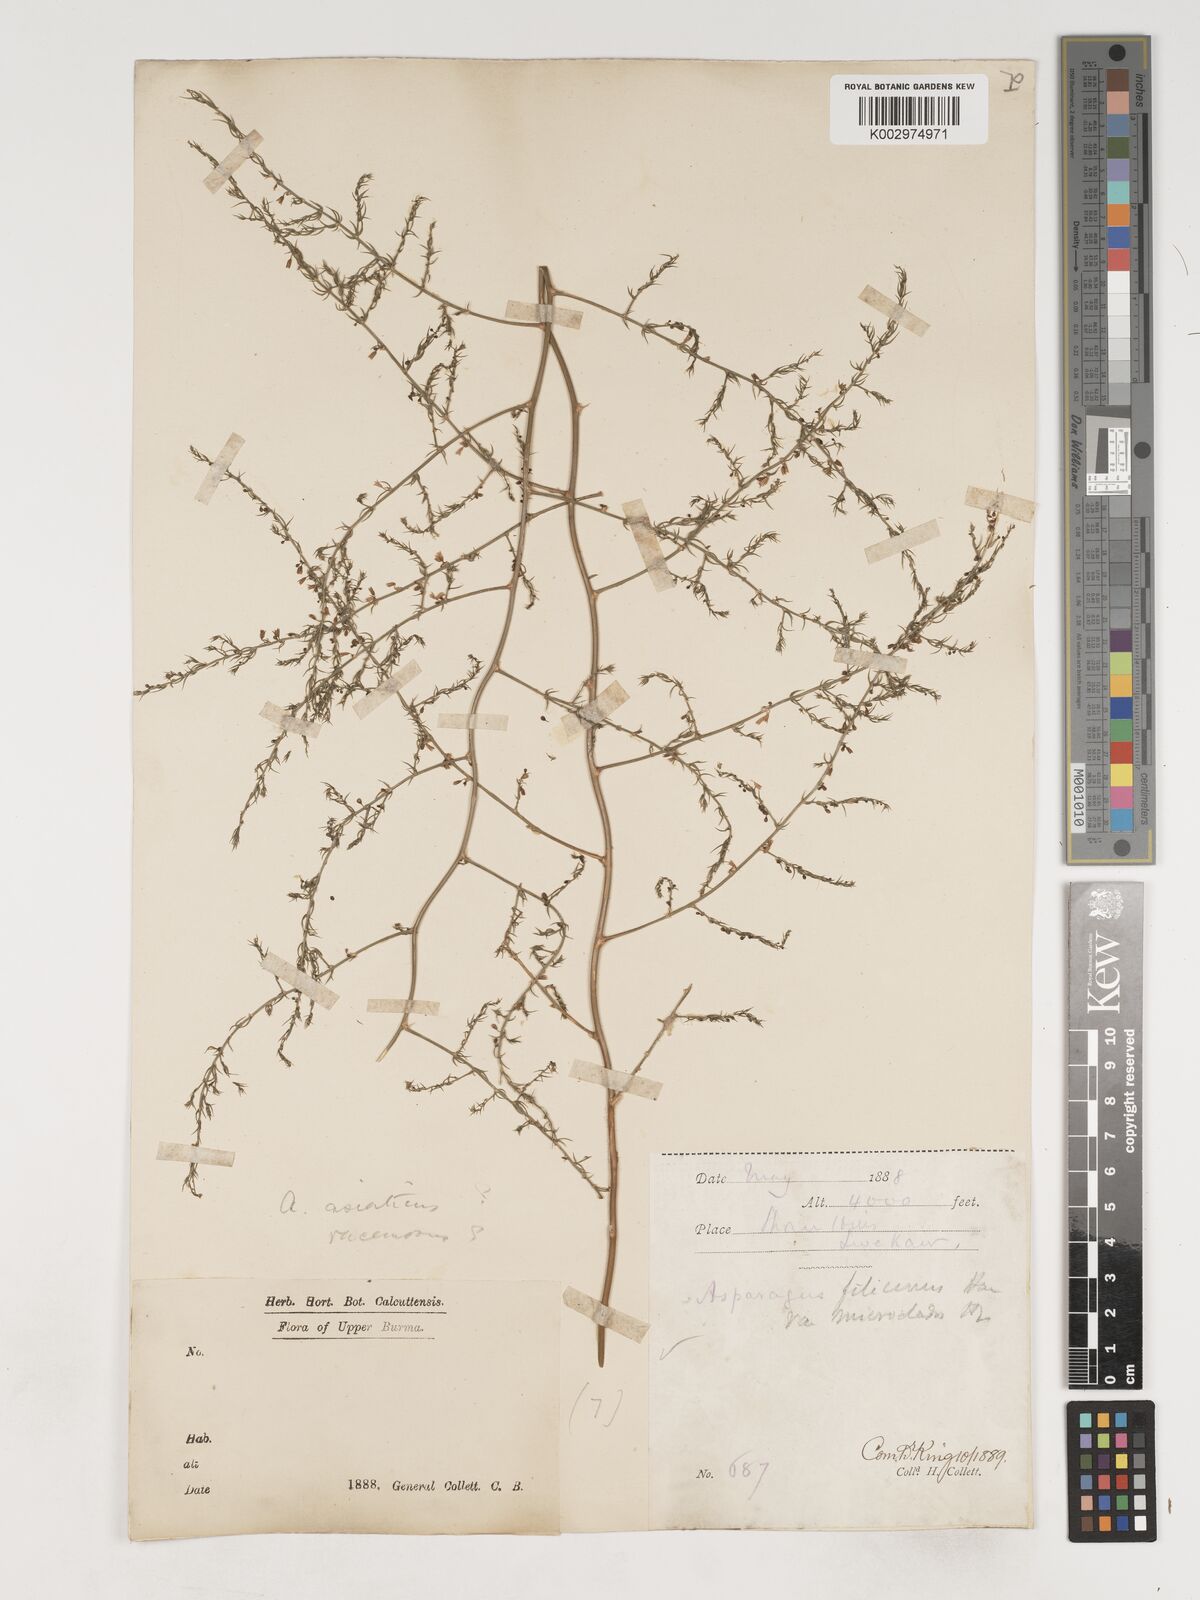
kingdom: Plantae
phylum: Tracheophyta
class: Liliopsida
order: Asparagales
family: Asparagaceae
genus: Asparagus
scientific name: Asparagus filicinus
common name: Fern asparagus
